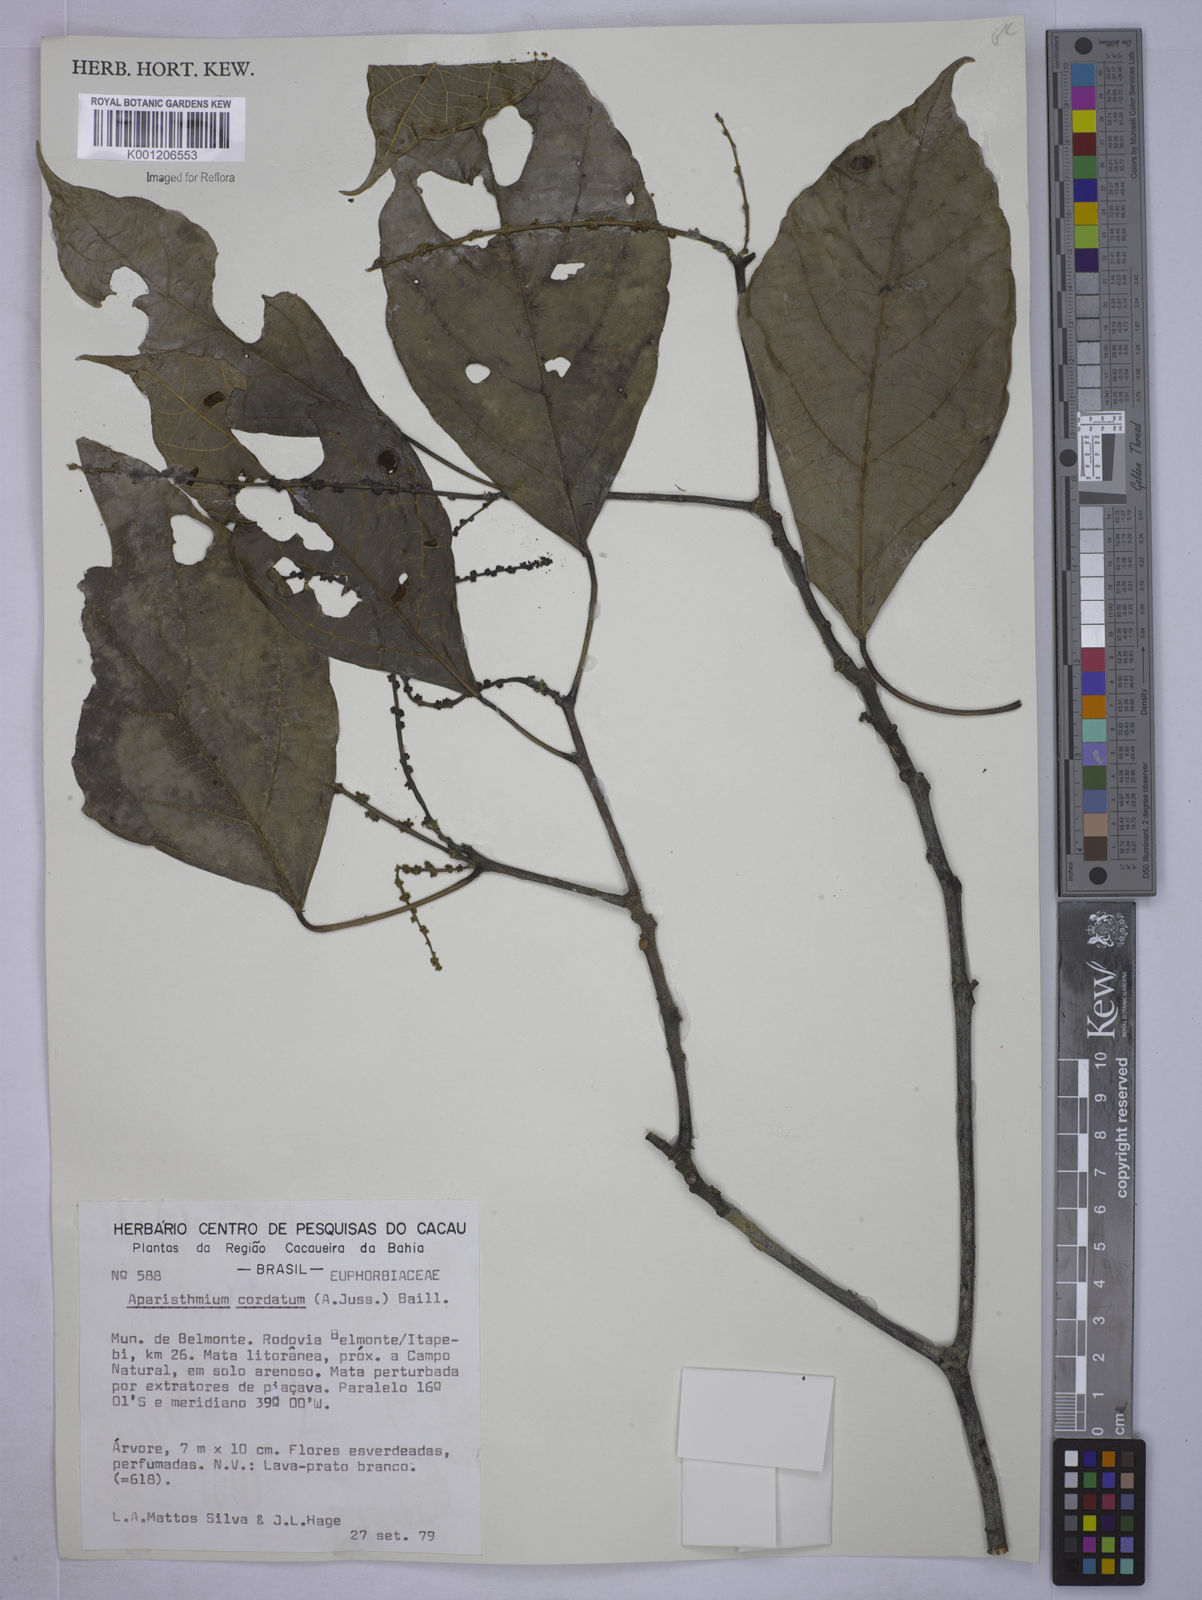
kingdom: Plantae
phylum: Tracheophyta
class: Magnoliopsida
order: Malpighiales
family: Euphorbiaceae
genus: Aparisthmium
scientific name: Aparisthmium cordatum
